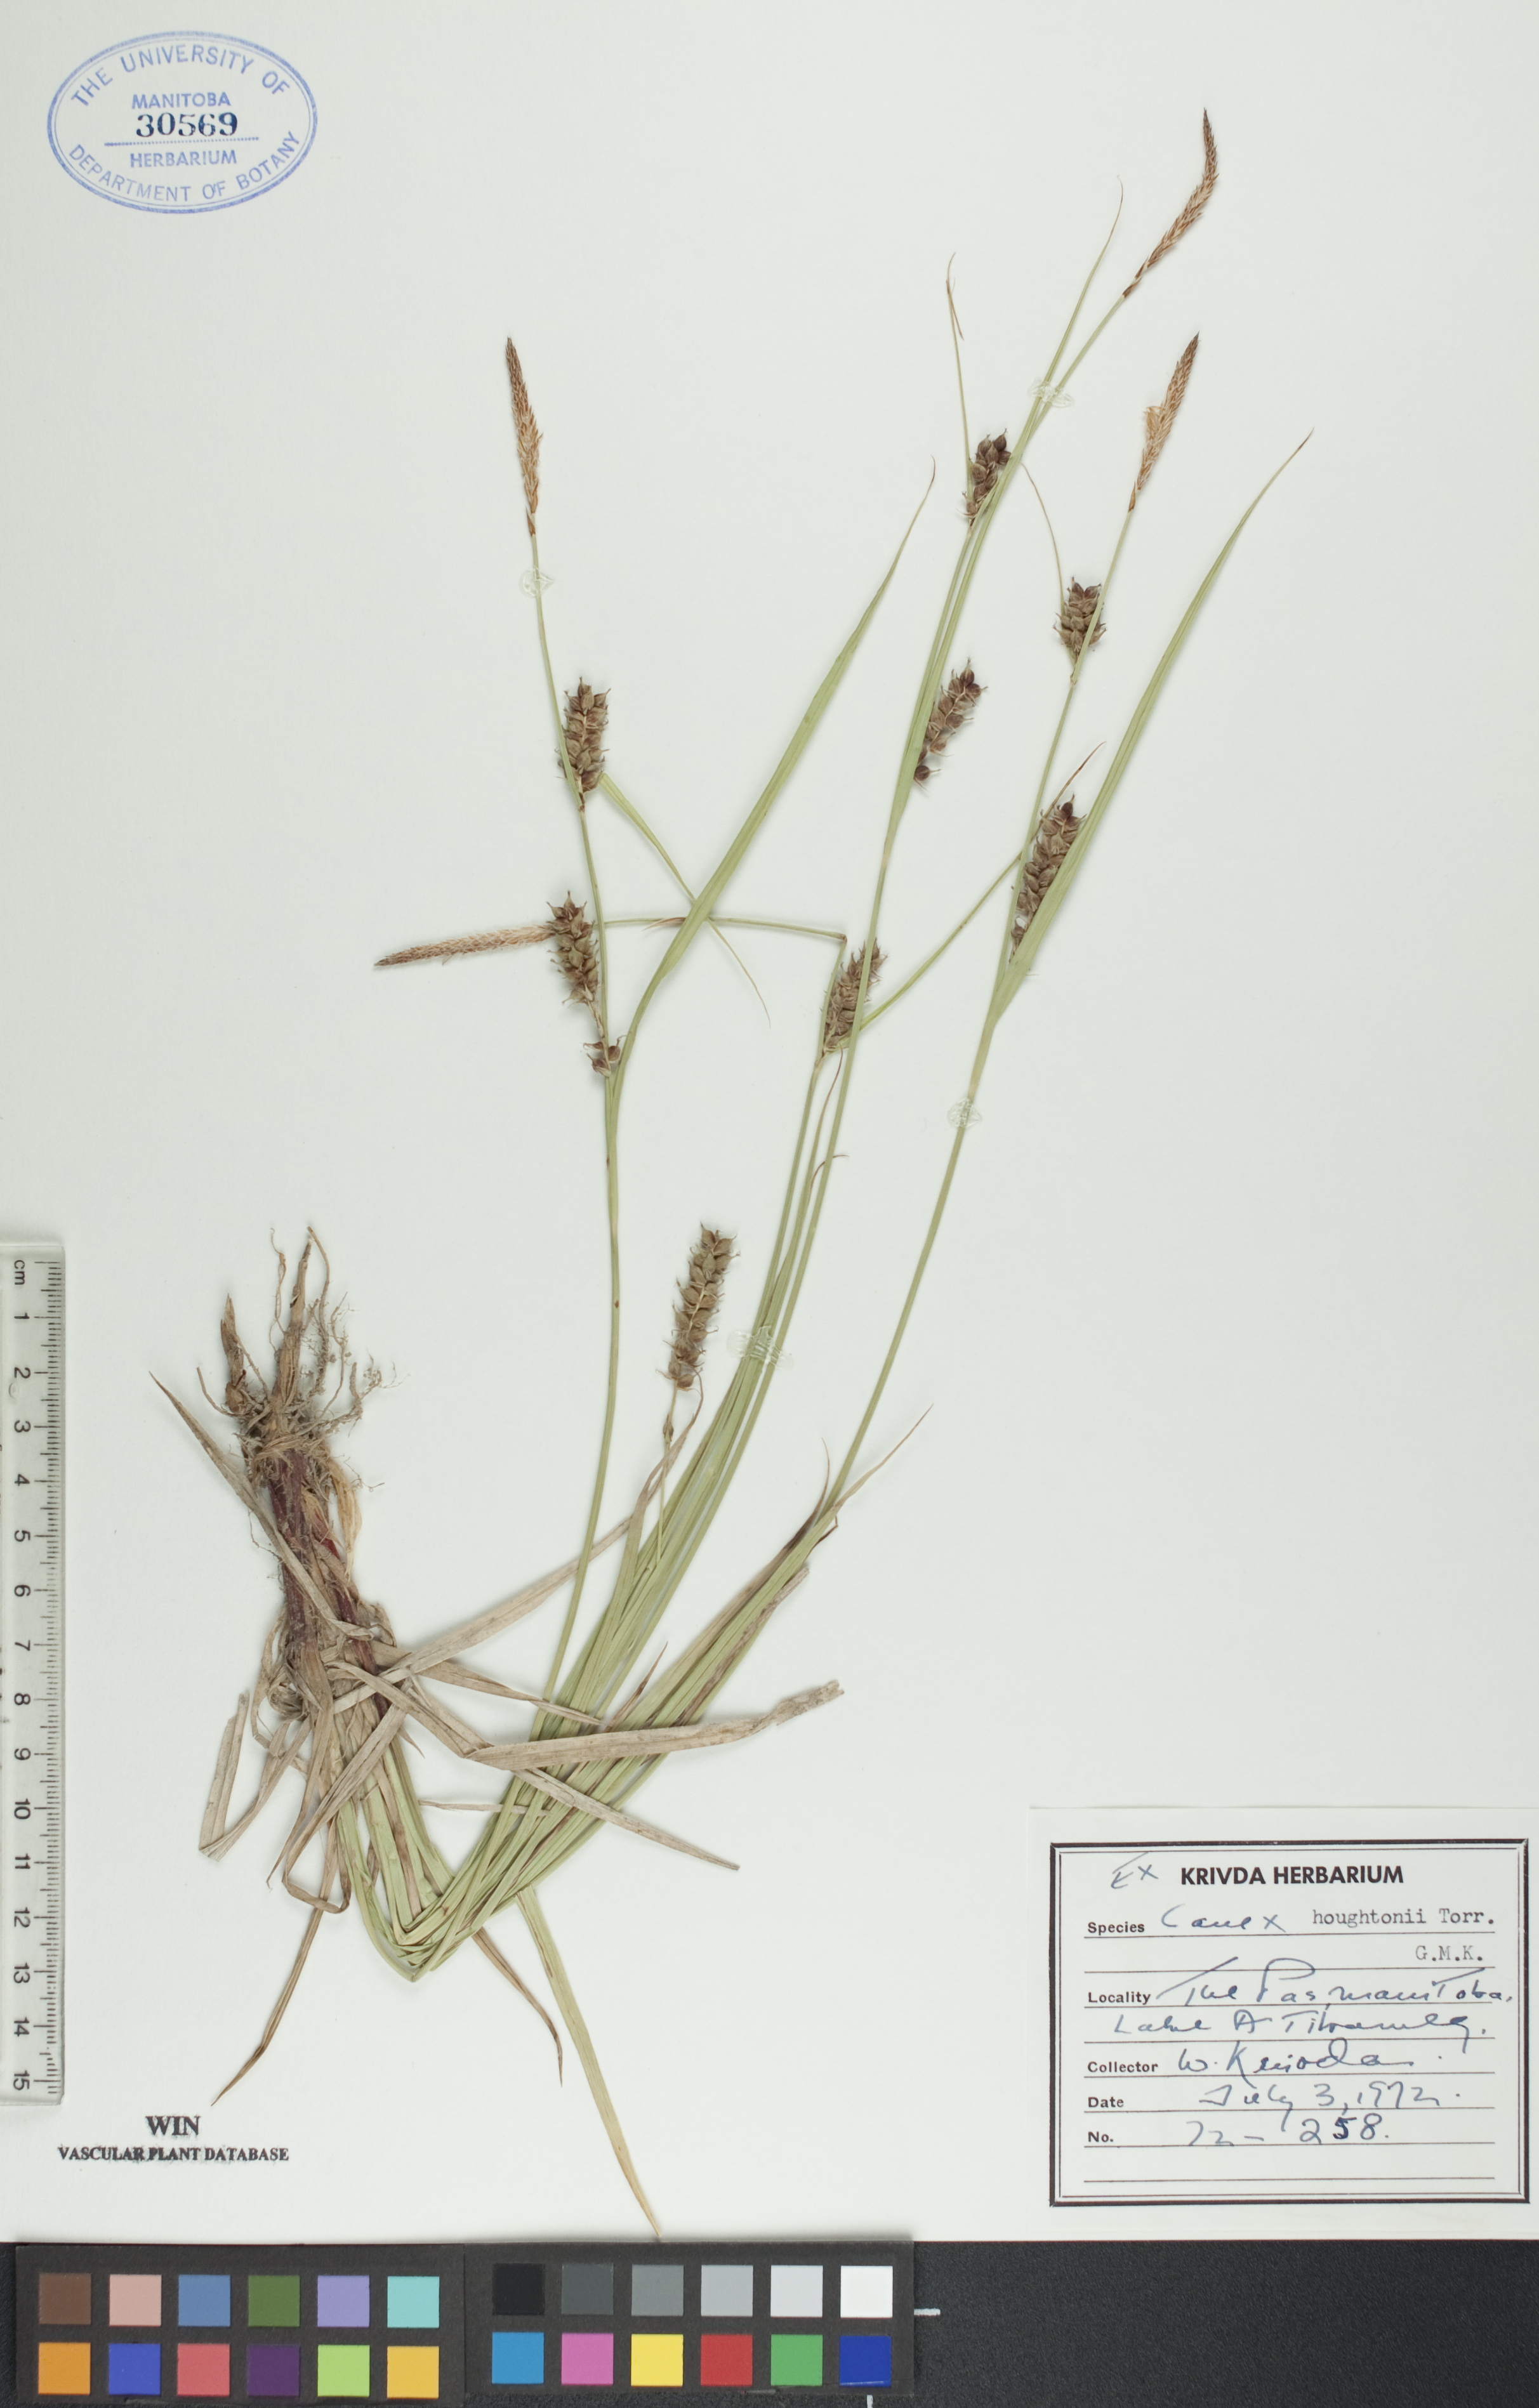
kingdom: Plantae
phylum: Tracheophyta
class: Liliopsida
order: Poales
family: Cyperaceae
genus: Carex
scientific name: Carex houghtoniana
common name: Houghton's sedge
